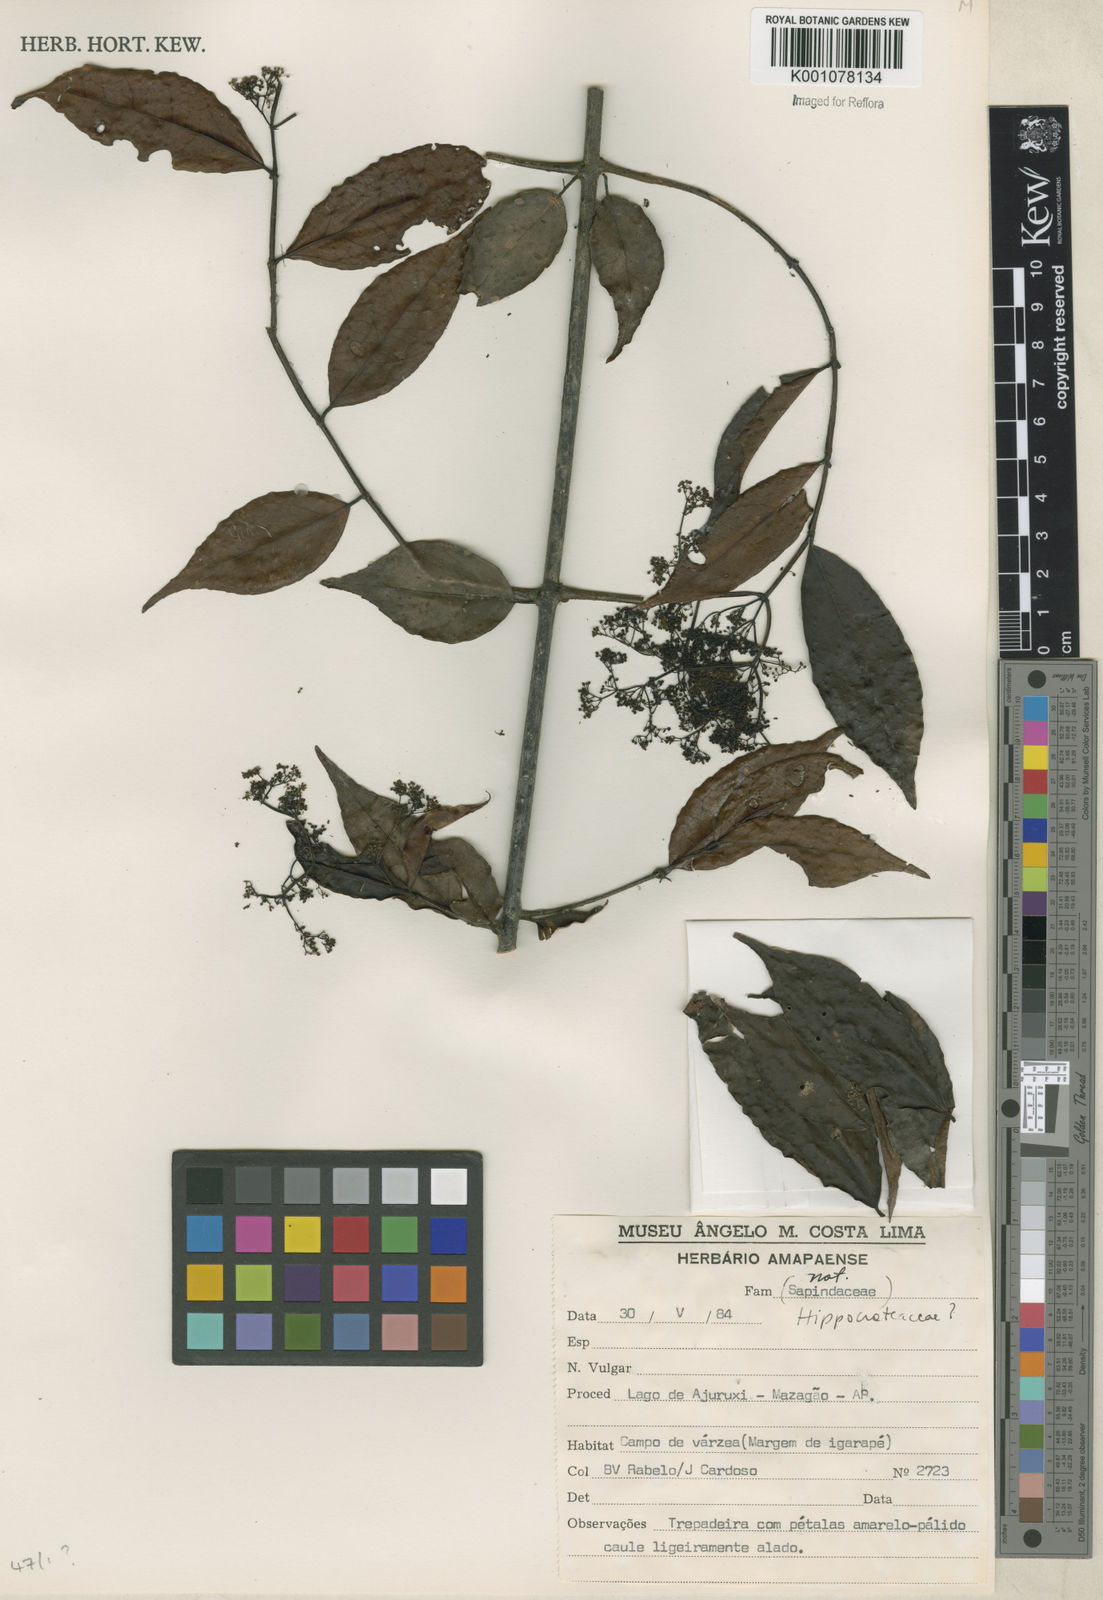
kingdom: Plantae
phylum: Tracheophyta
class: Magnoliopsida
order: Celastrales
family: Celastraceae
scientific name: Celastraceae
